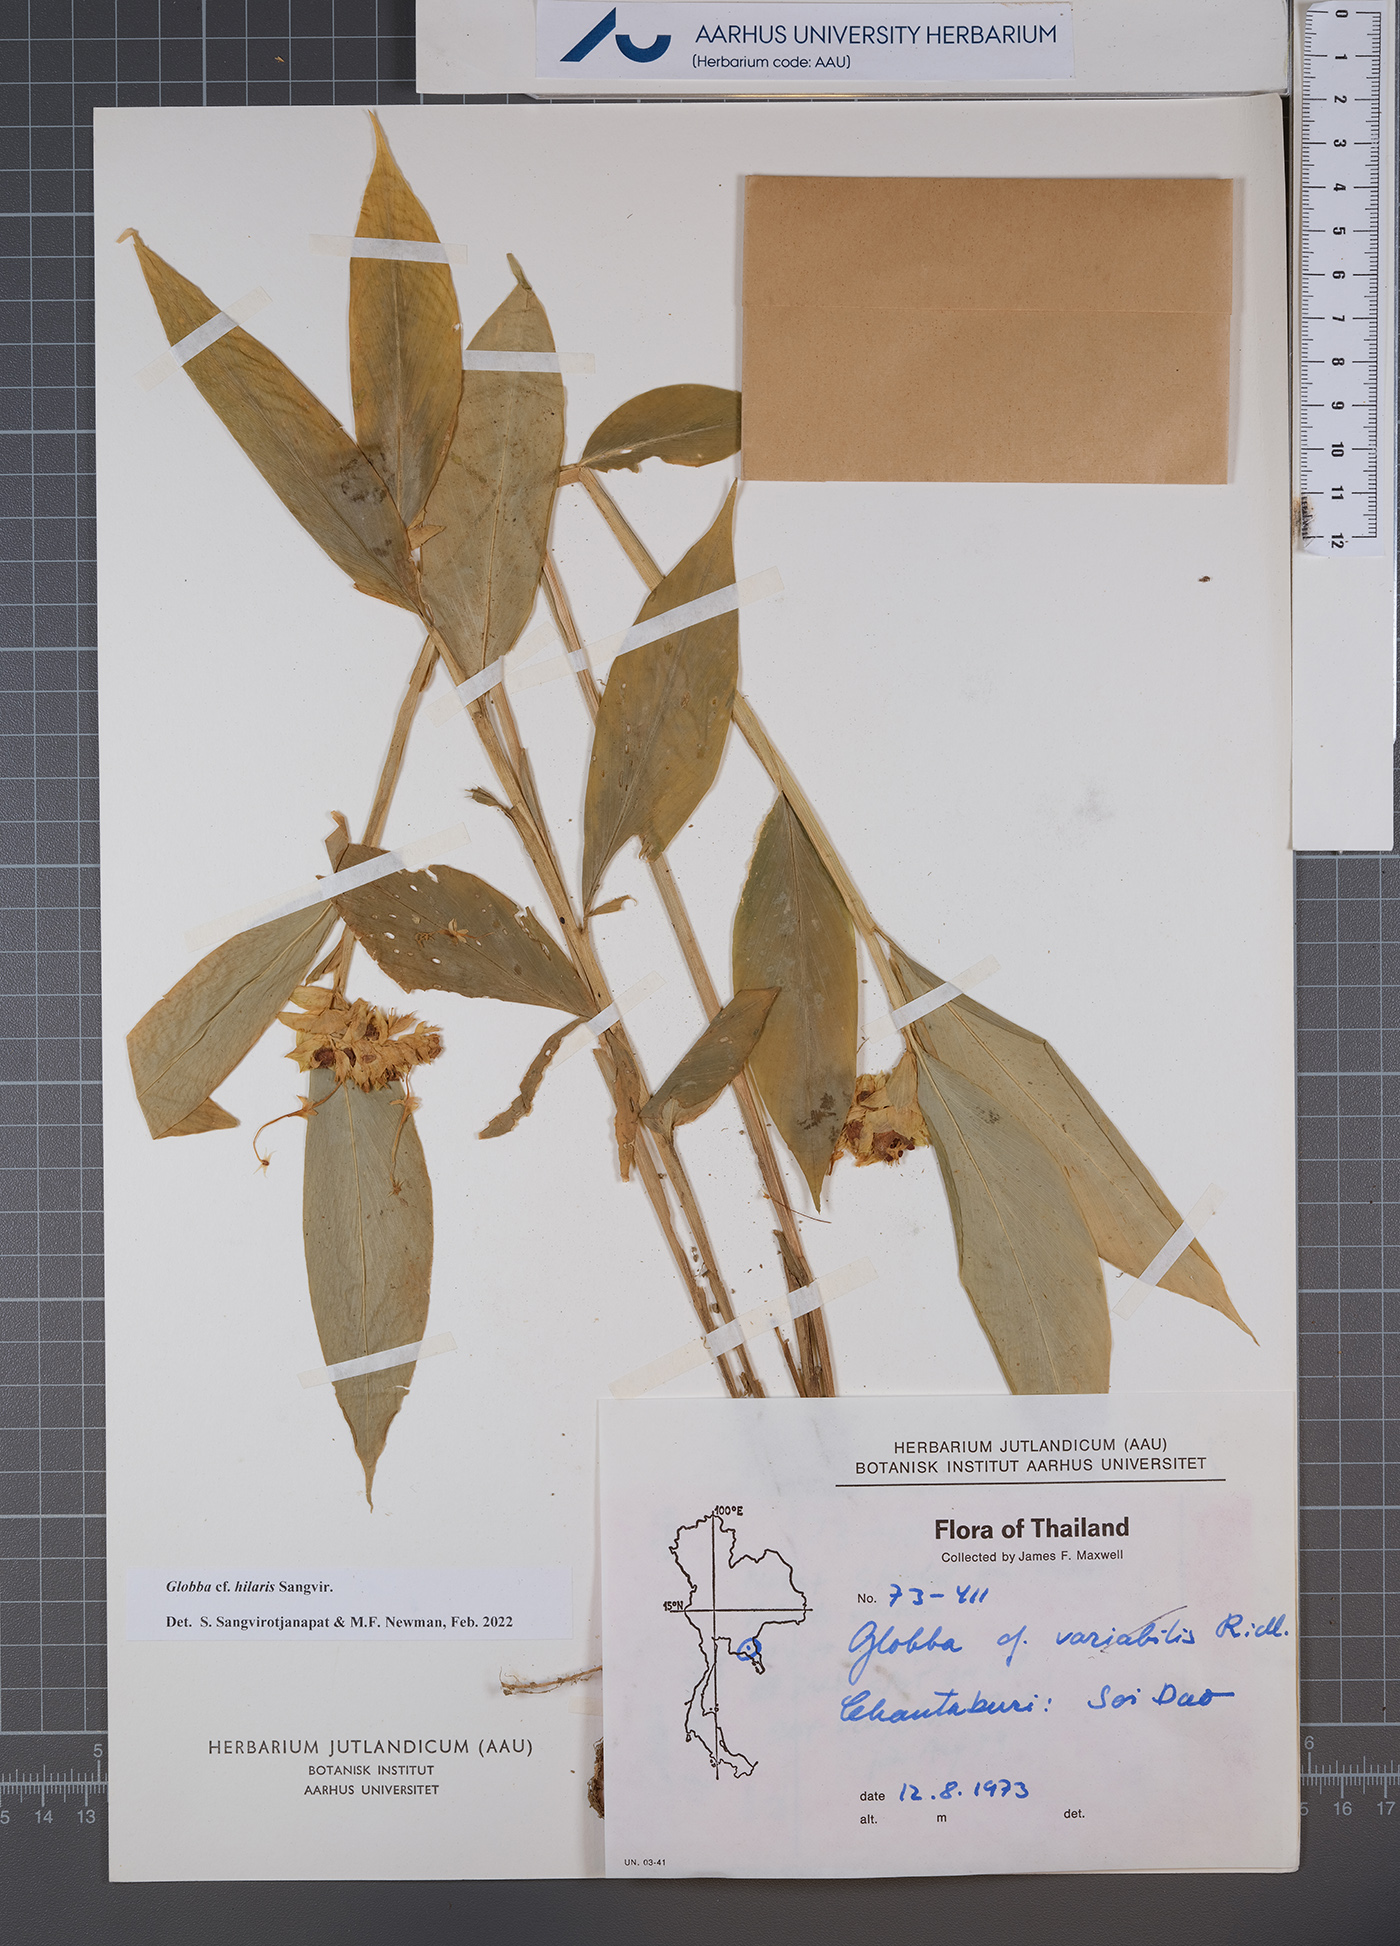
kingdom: Plantae
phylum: Tracheophyta
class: Liliopsida
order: Zingiberales
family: Zingiberaceae
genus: Globba
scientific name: Globba hilaris
